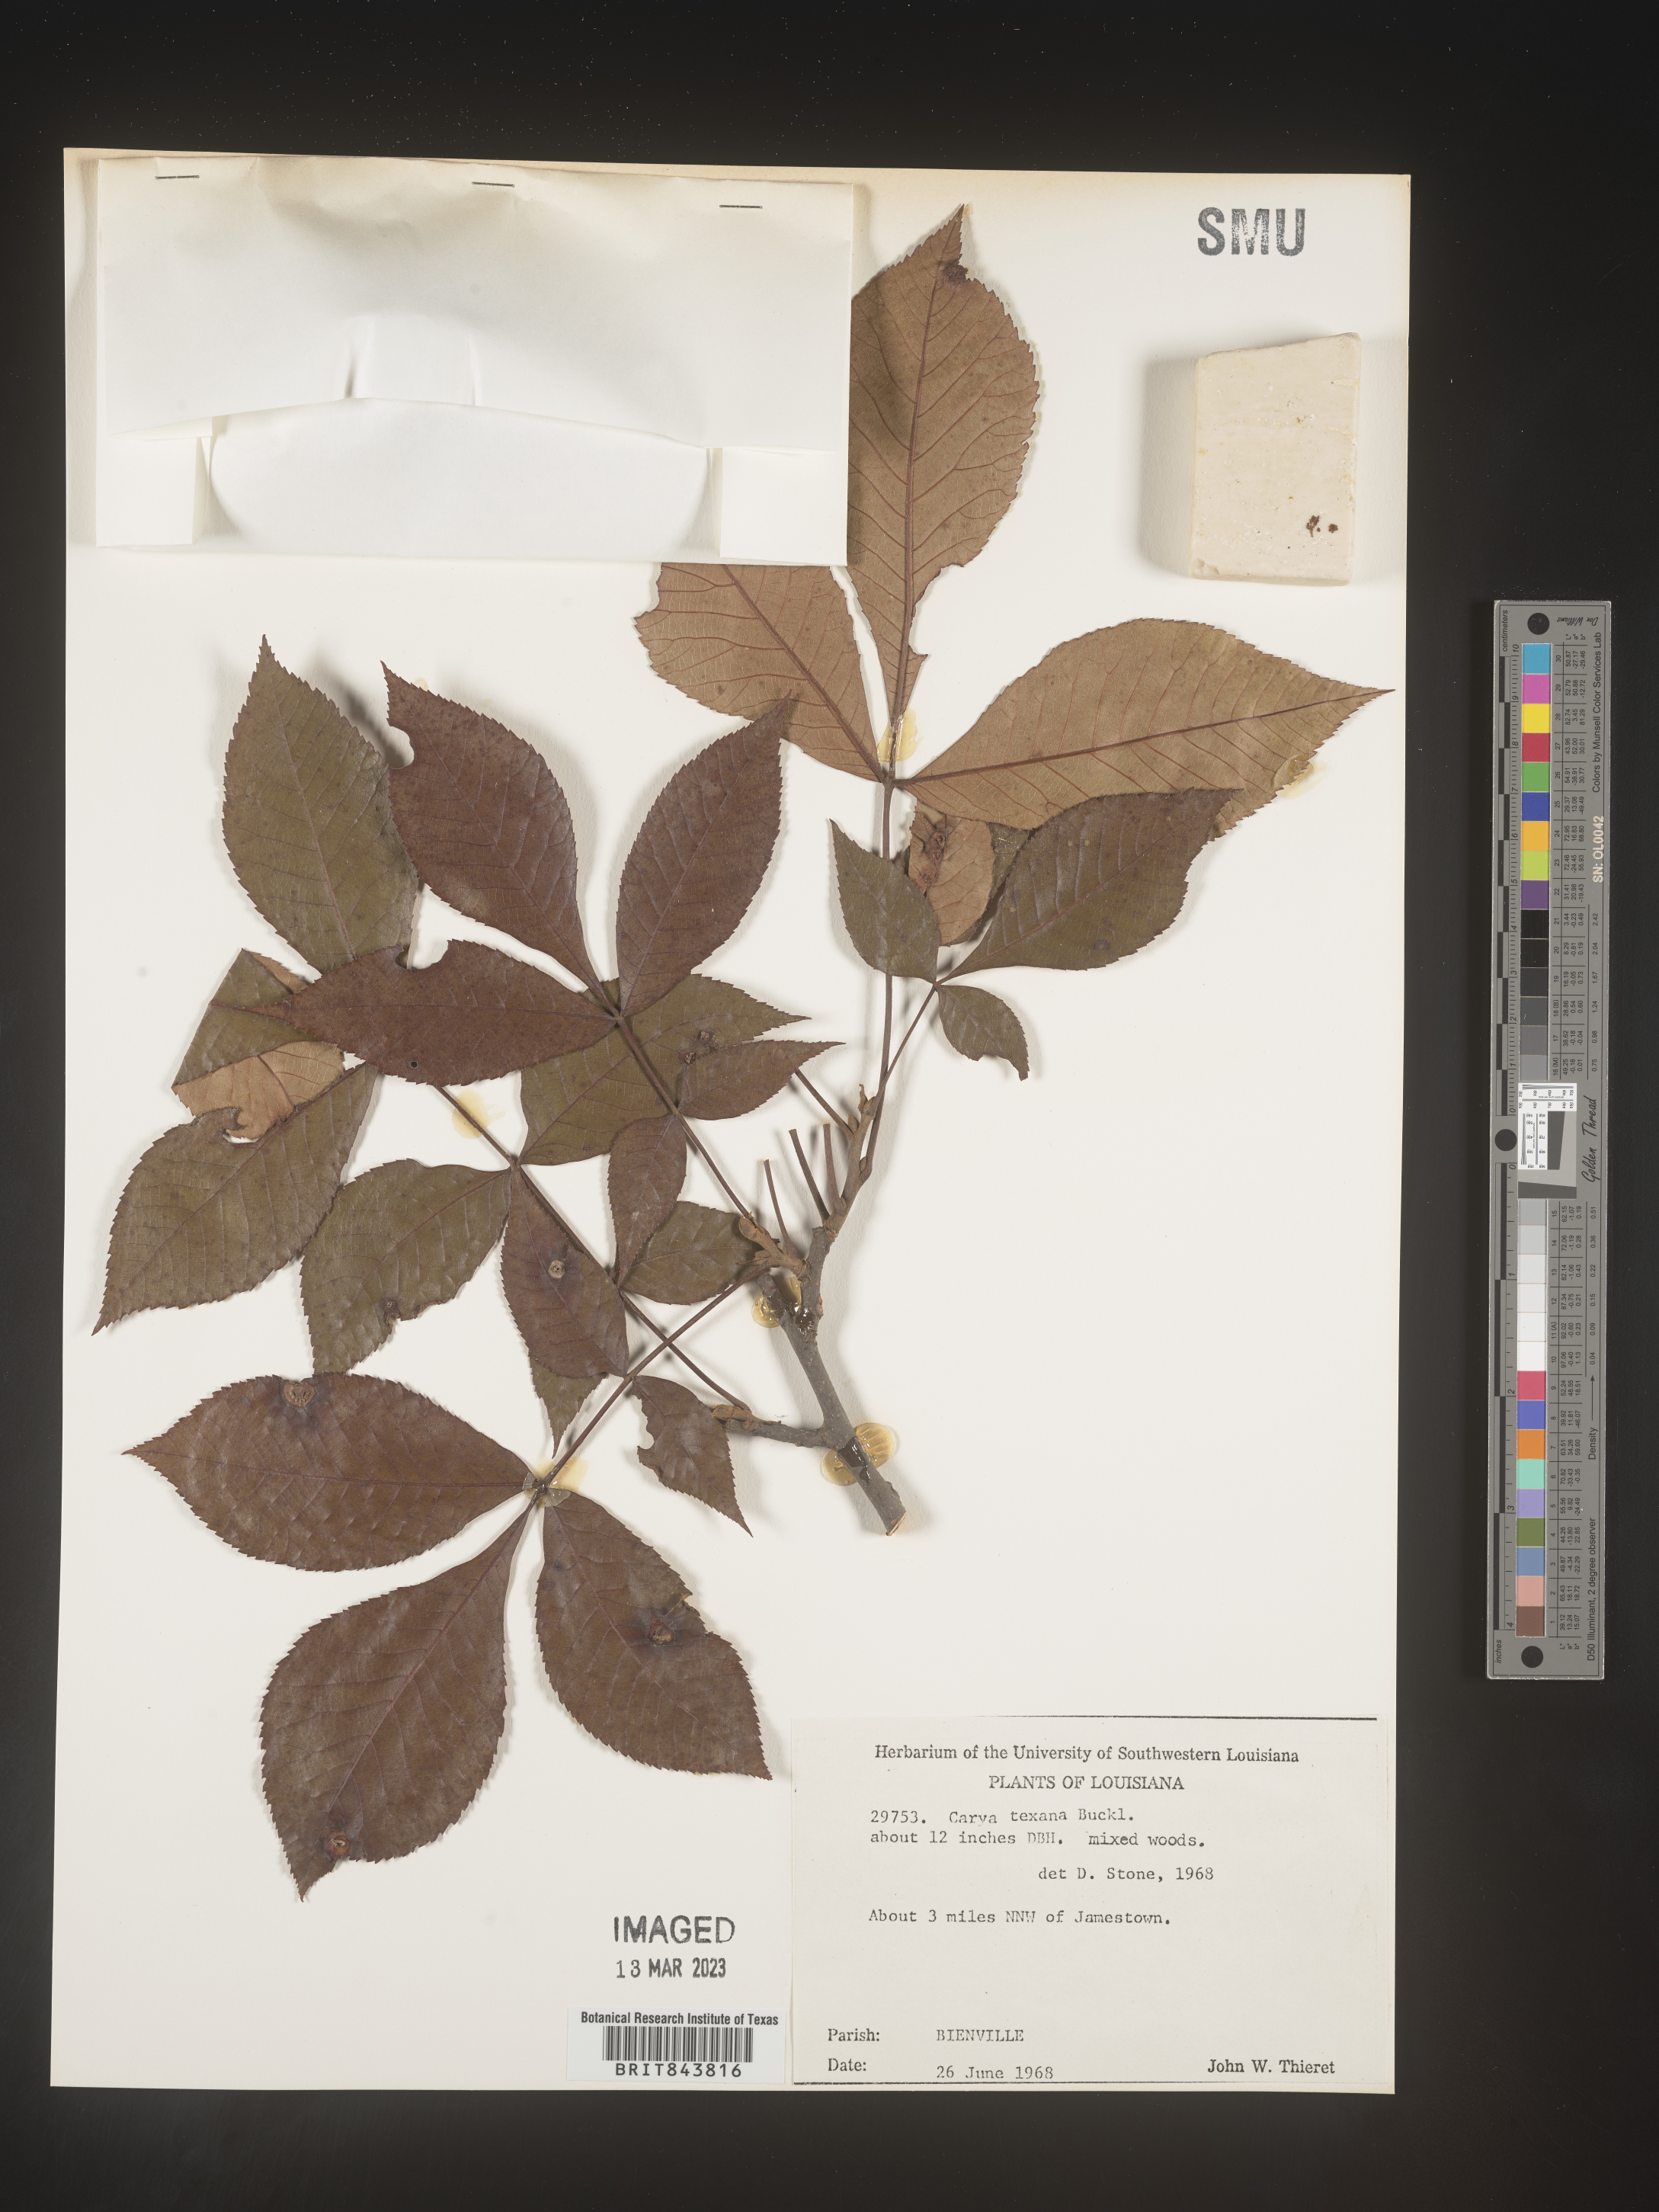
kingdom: Plantae
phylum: Tracheophyta
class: Magnoliopsida
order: Fagales
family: Juglandaceae
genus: Carya
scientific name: Carya texana
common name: Black hickory
